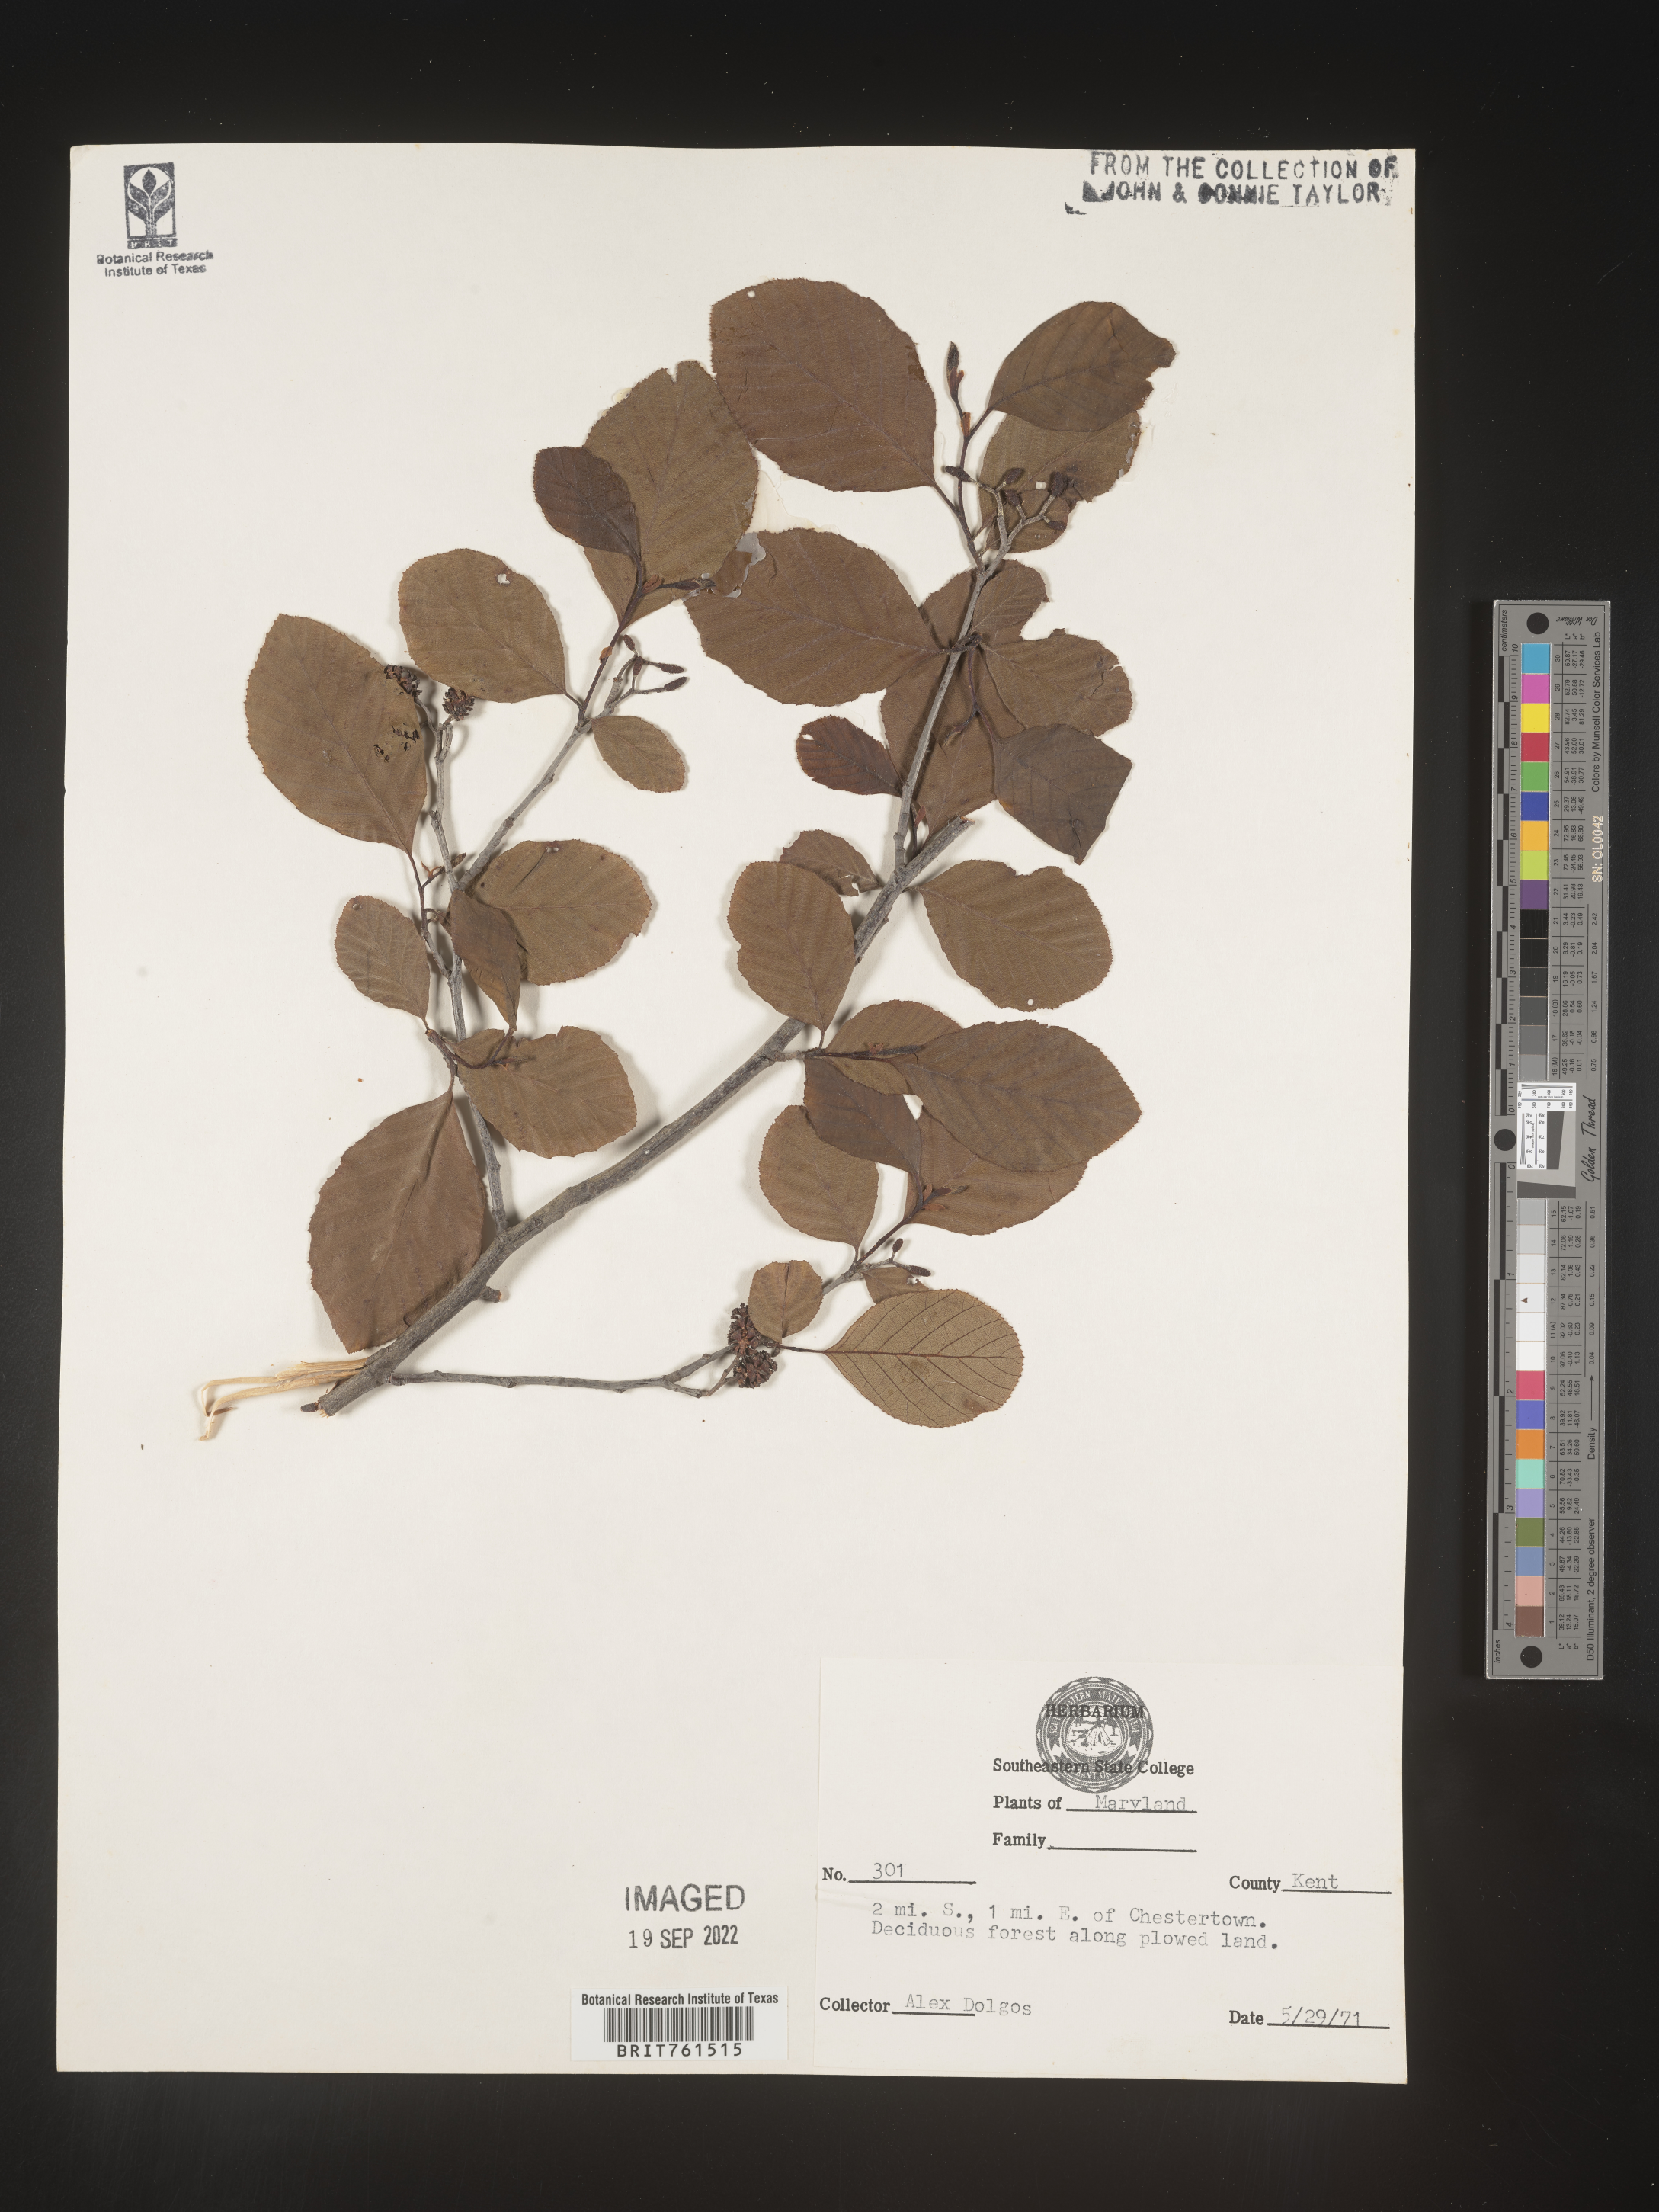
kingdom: Plantae
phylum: Tracheophyta
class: Magnoliopsida
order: Fagales
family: Betulaceae
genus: Alnus
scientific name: Alnus
